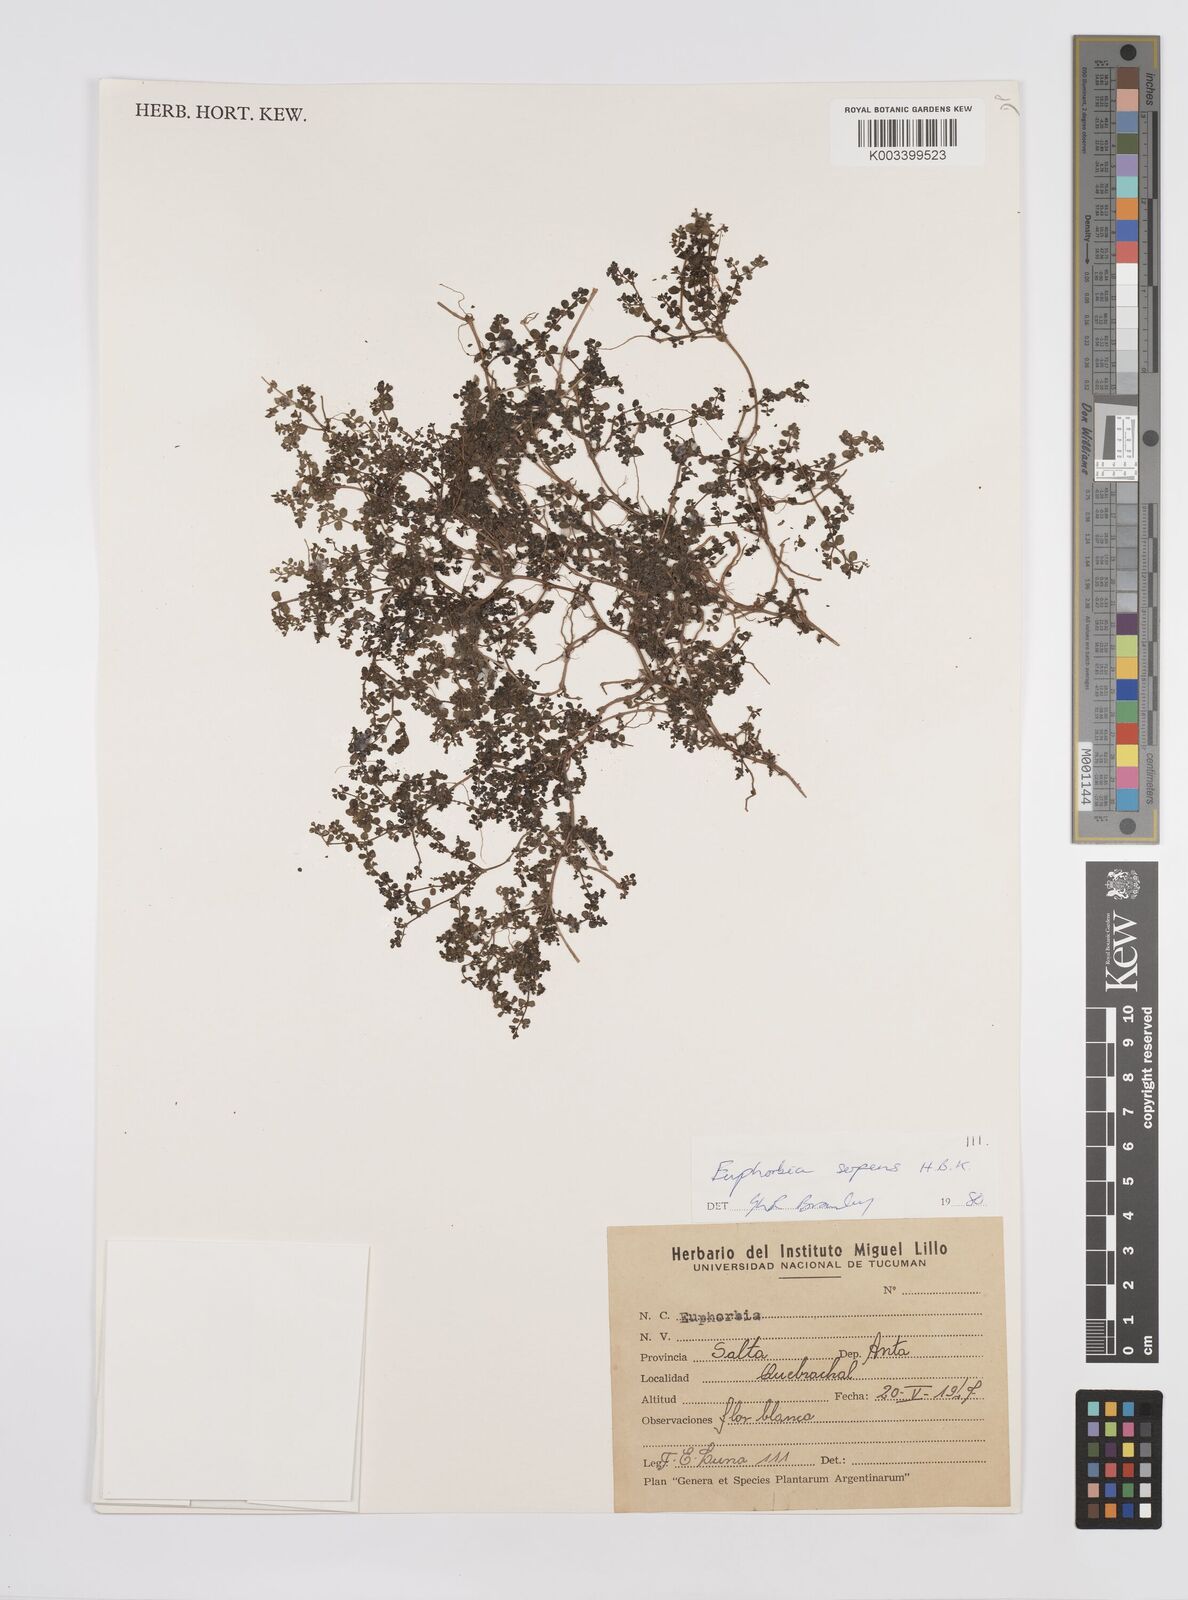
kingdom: Plantae
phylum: Tracheophyta
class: Magnoliopsida
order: Malpighiales
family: Euphorbiaceae
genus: Euphorbia
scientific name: Euphorbia
